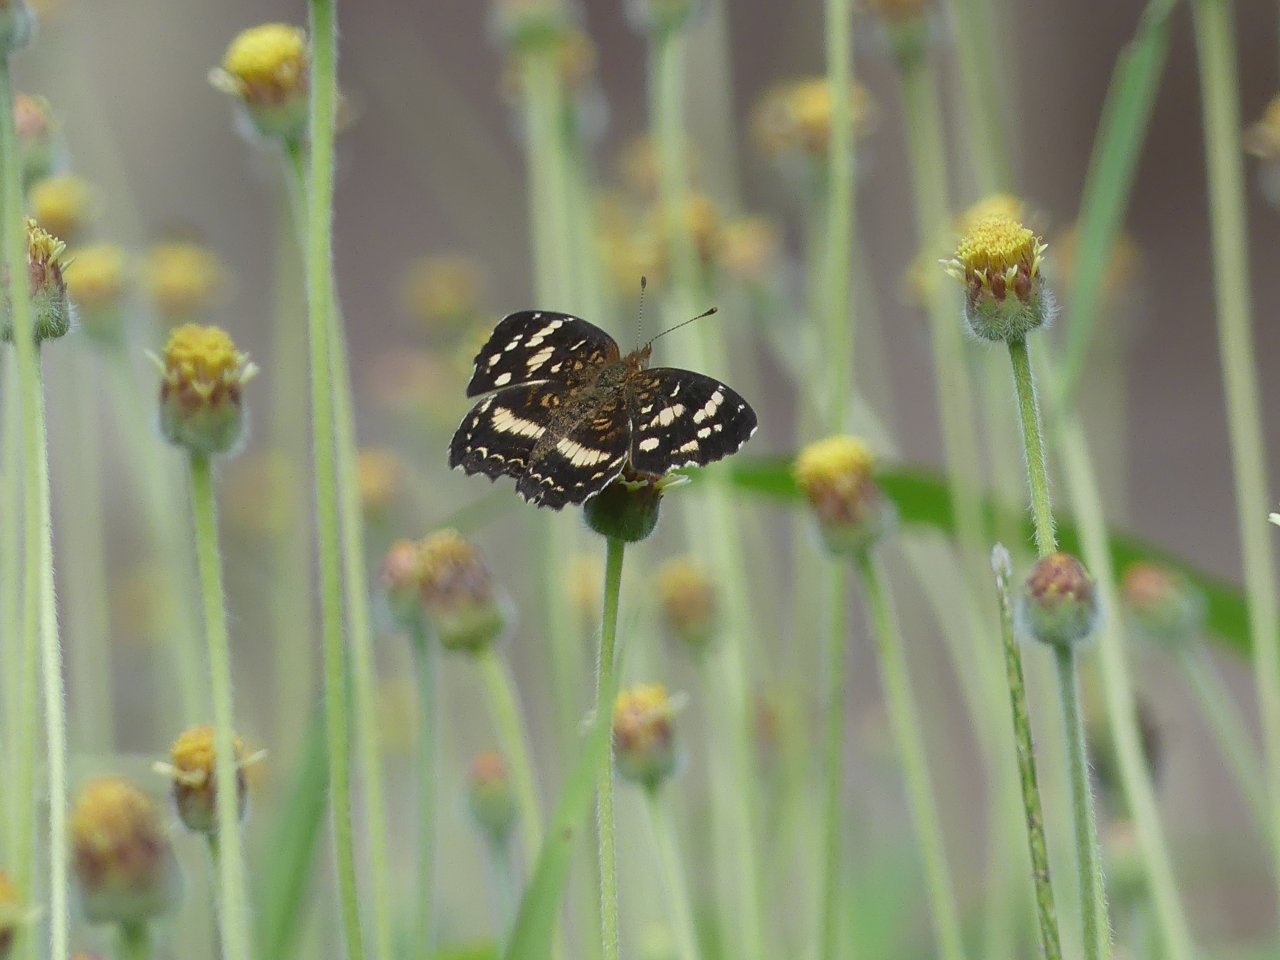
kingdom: Animalia
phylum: Arthropoda
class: Insecta
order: Lepidoptera
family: Nymphalidae
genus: Anthanassa
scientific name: Anthanassa tulcis
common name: Pale-banded Crescent
